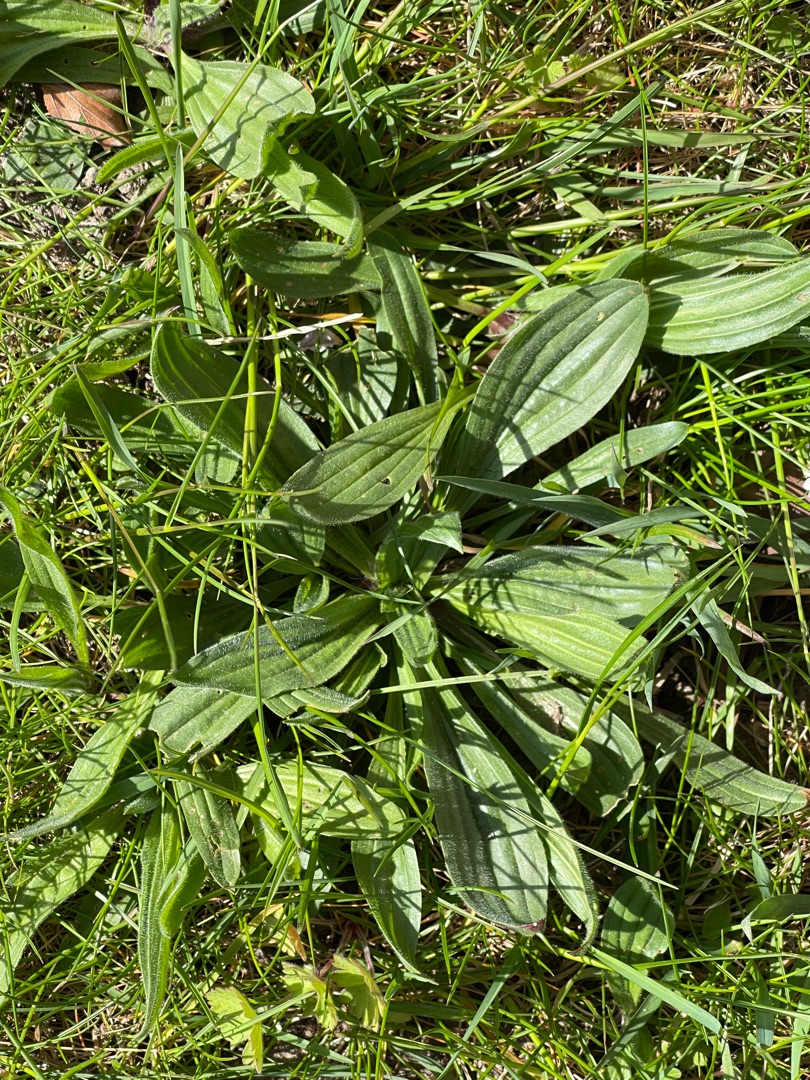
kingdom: Plantae
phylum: Tracheophyta
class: Magnoliopsida
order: Lamiales
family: Plantaginaceae
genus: Plantago
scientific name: Plantago lanceolata
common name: Lancet-vejbred
